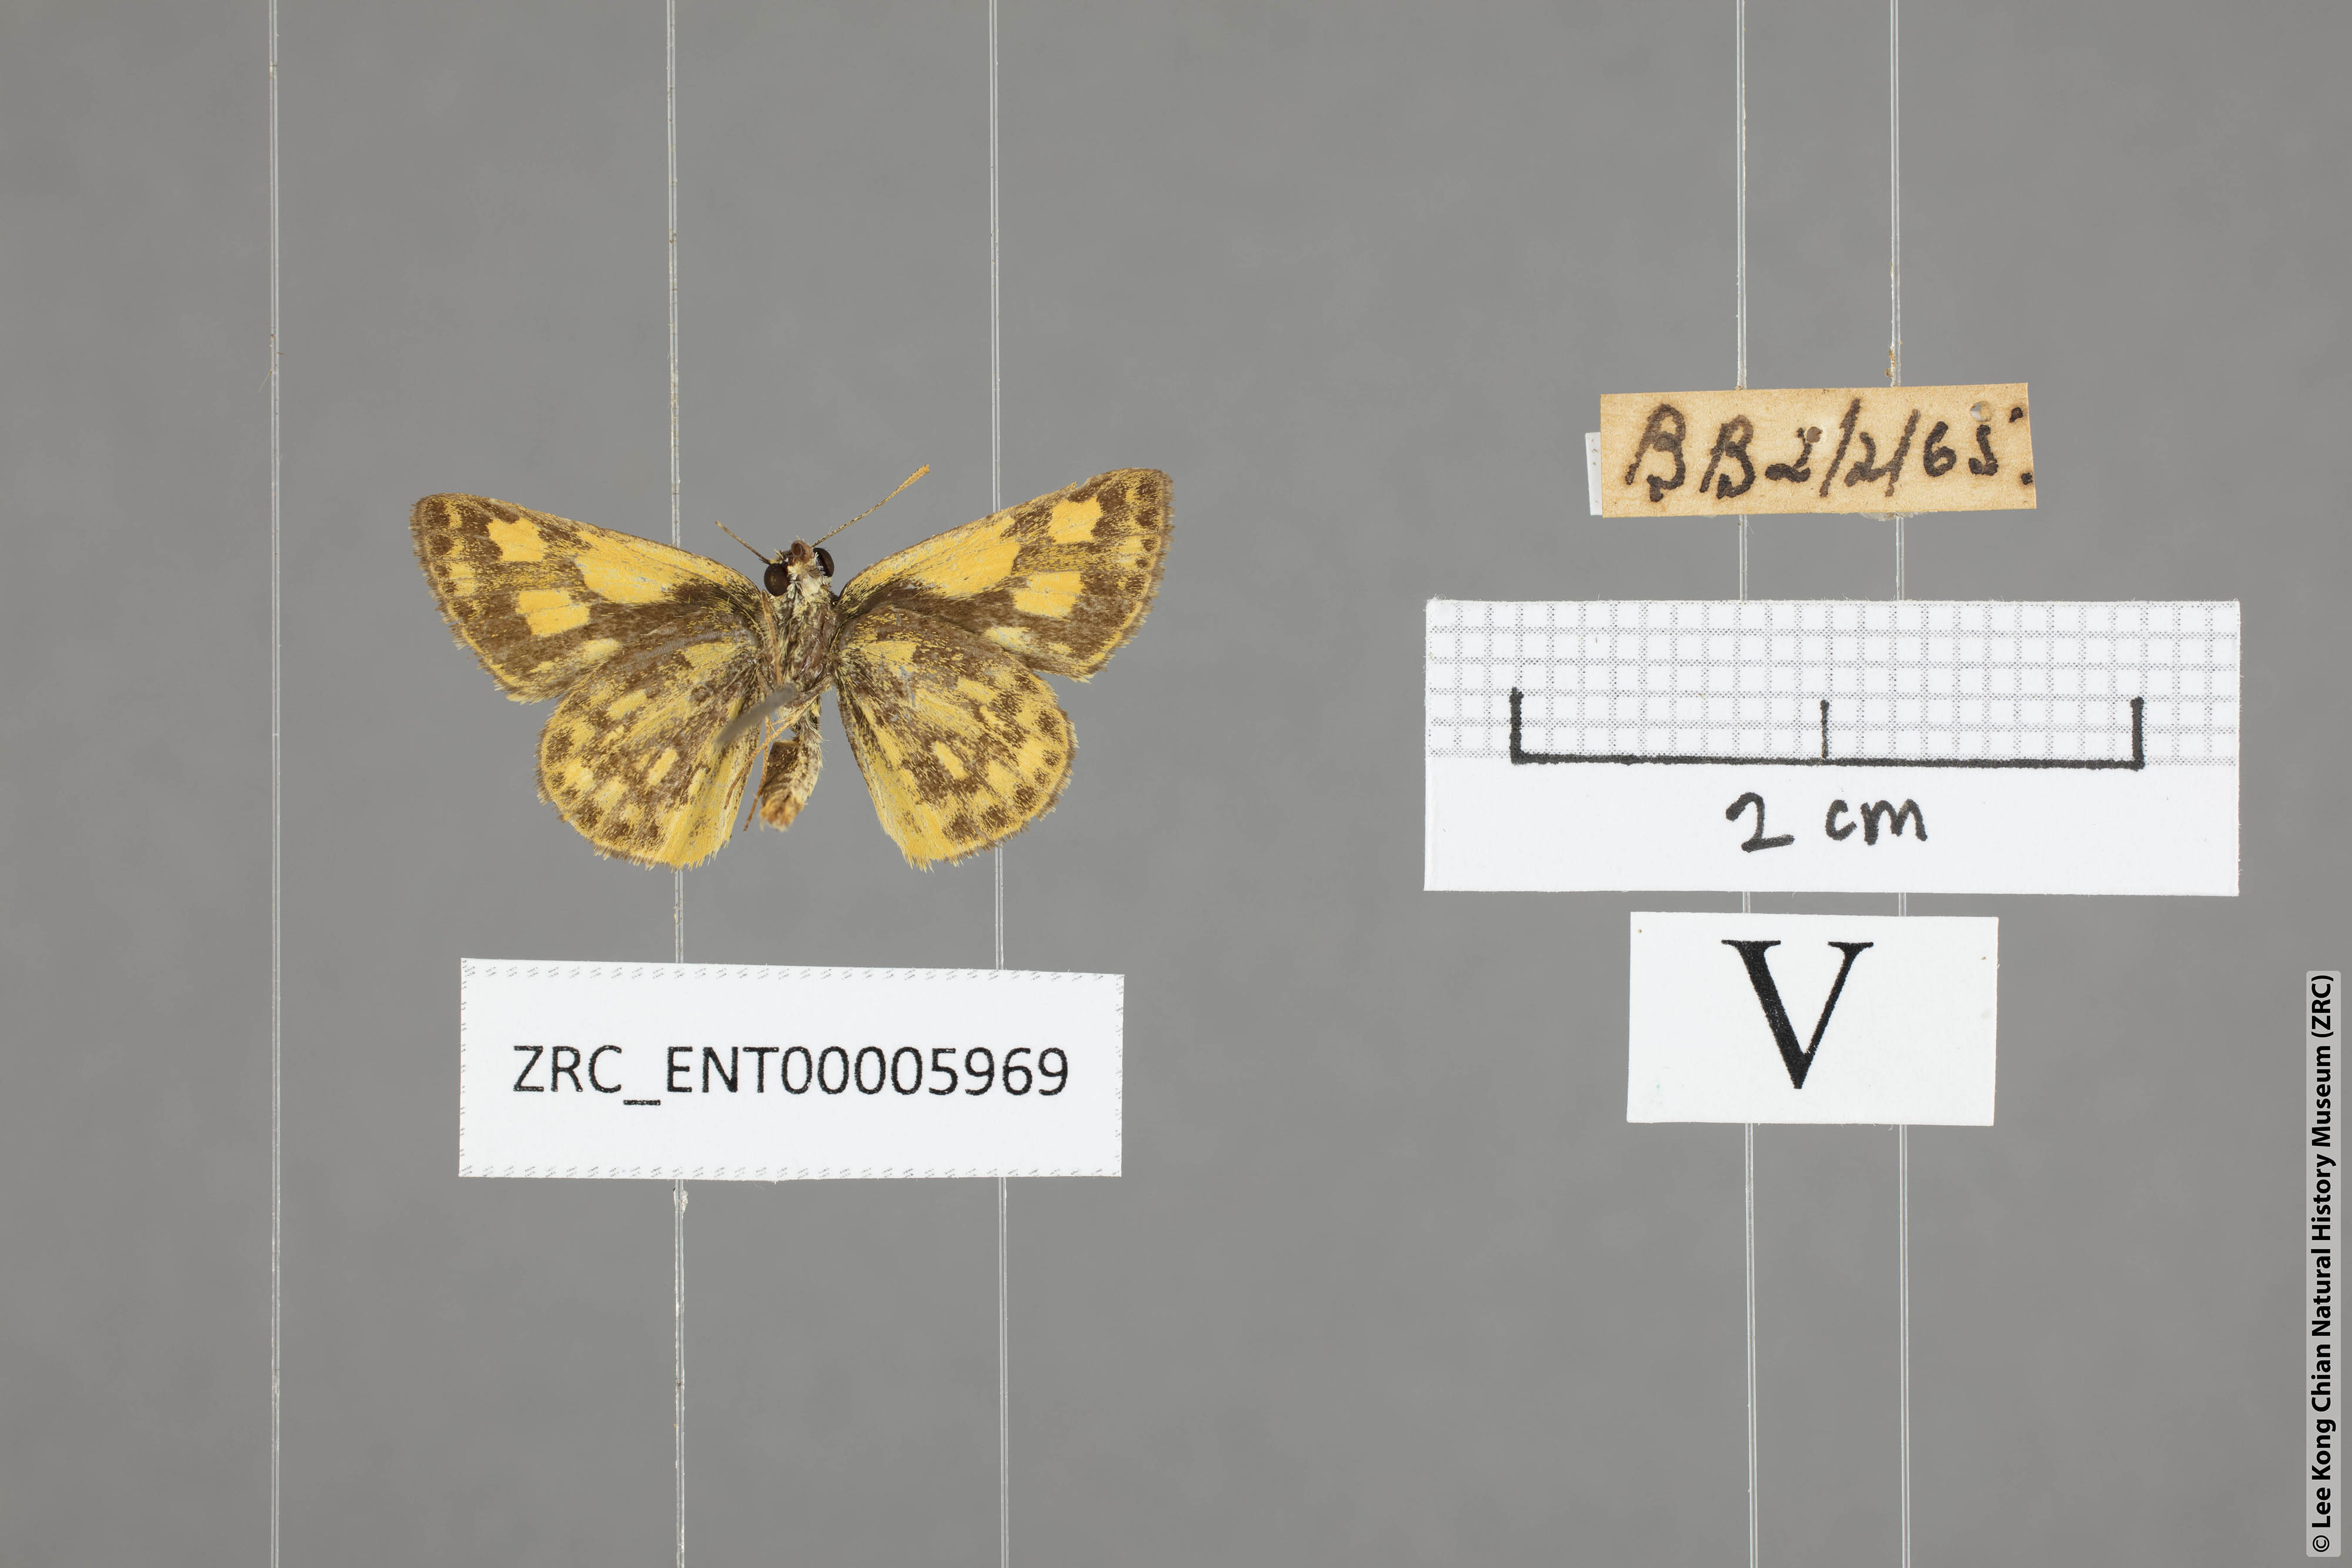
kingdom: Animalia
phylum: Arthropoda
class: Insecta
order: Lepidoptera
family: Hesperiidae
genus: Ampittia
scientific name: Ampittia dioscorides
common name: Common bush hopper
